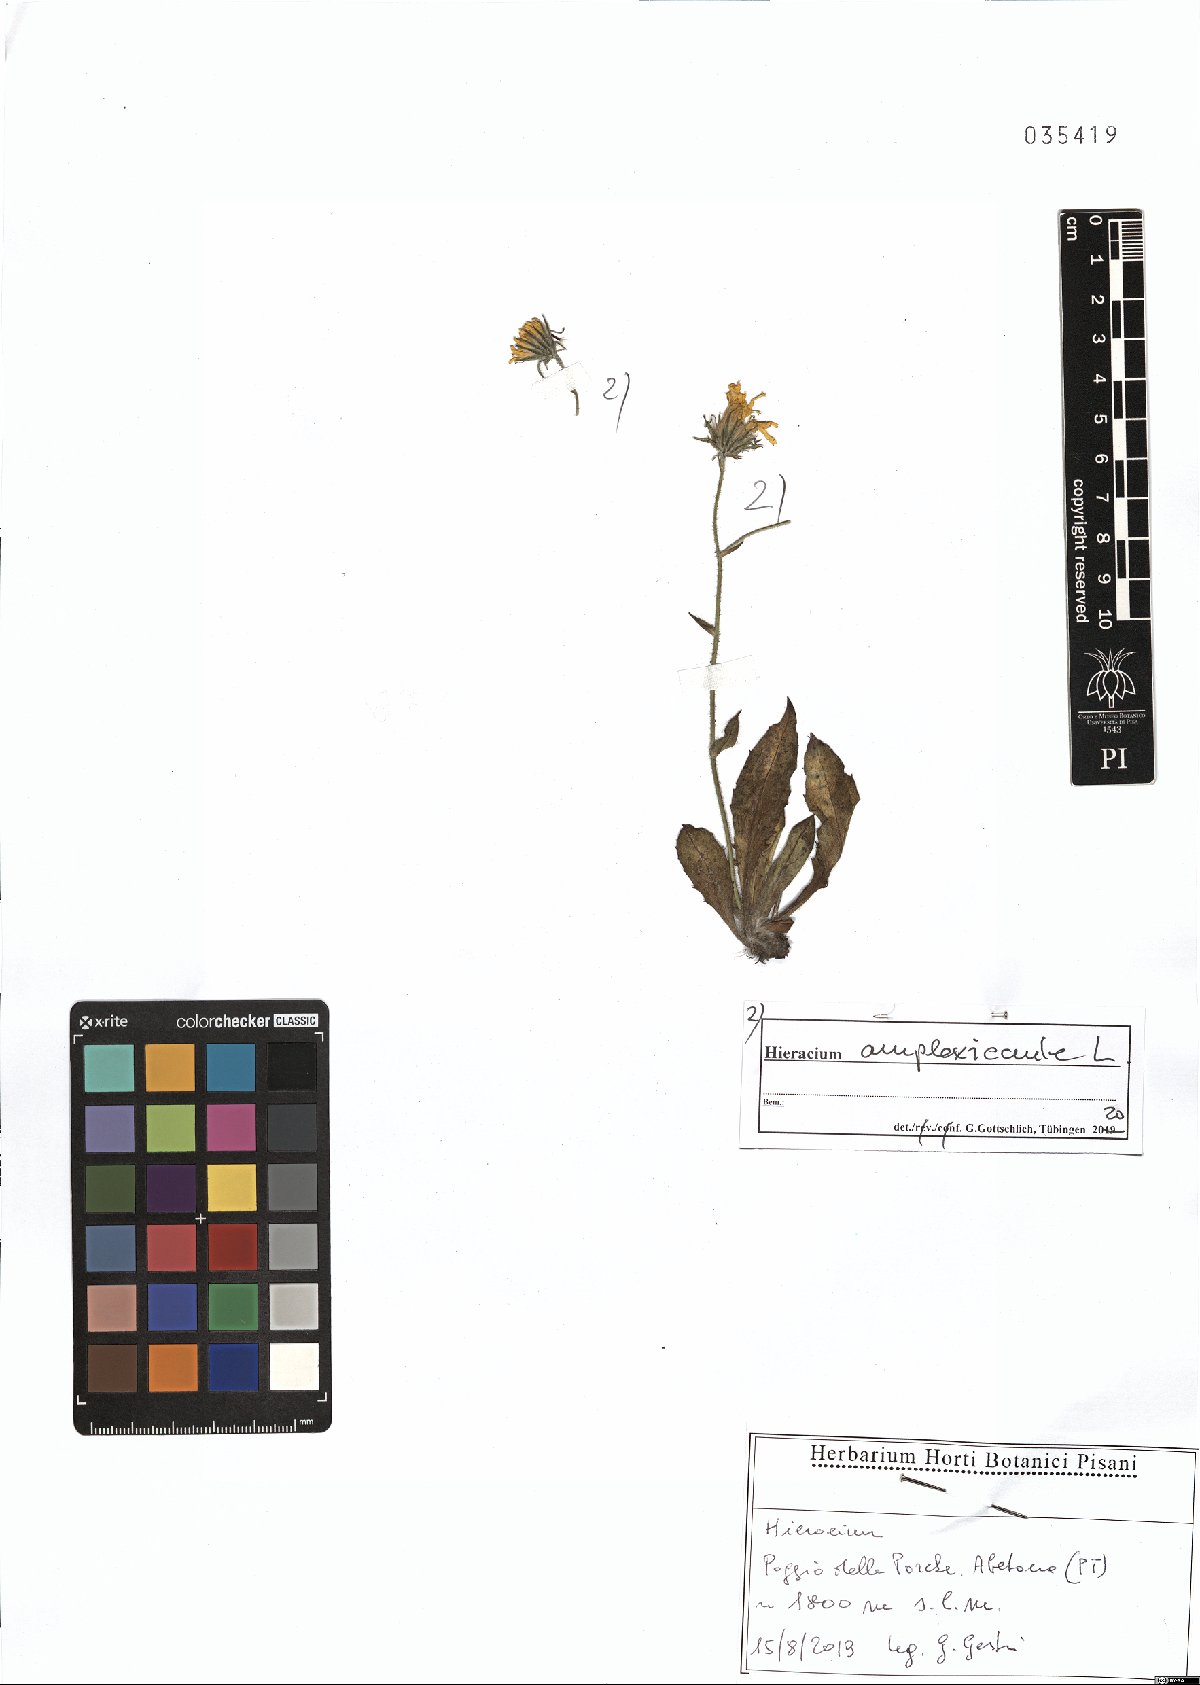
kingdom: Plantae
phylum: Tracheophyta
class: Magnoliopsida
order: Asterales
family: Asteraceae
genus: Hieracium
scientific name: Hieracium amplexicaule
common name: Sticky hawkweed
